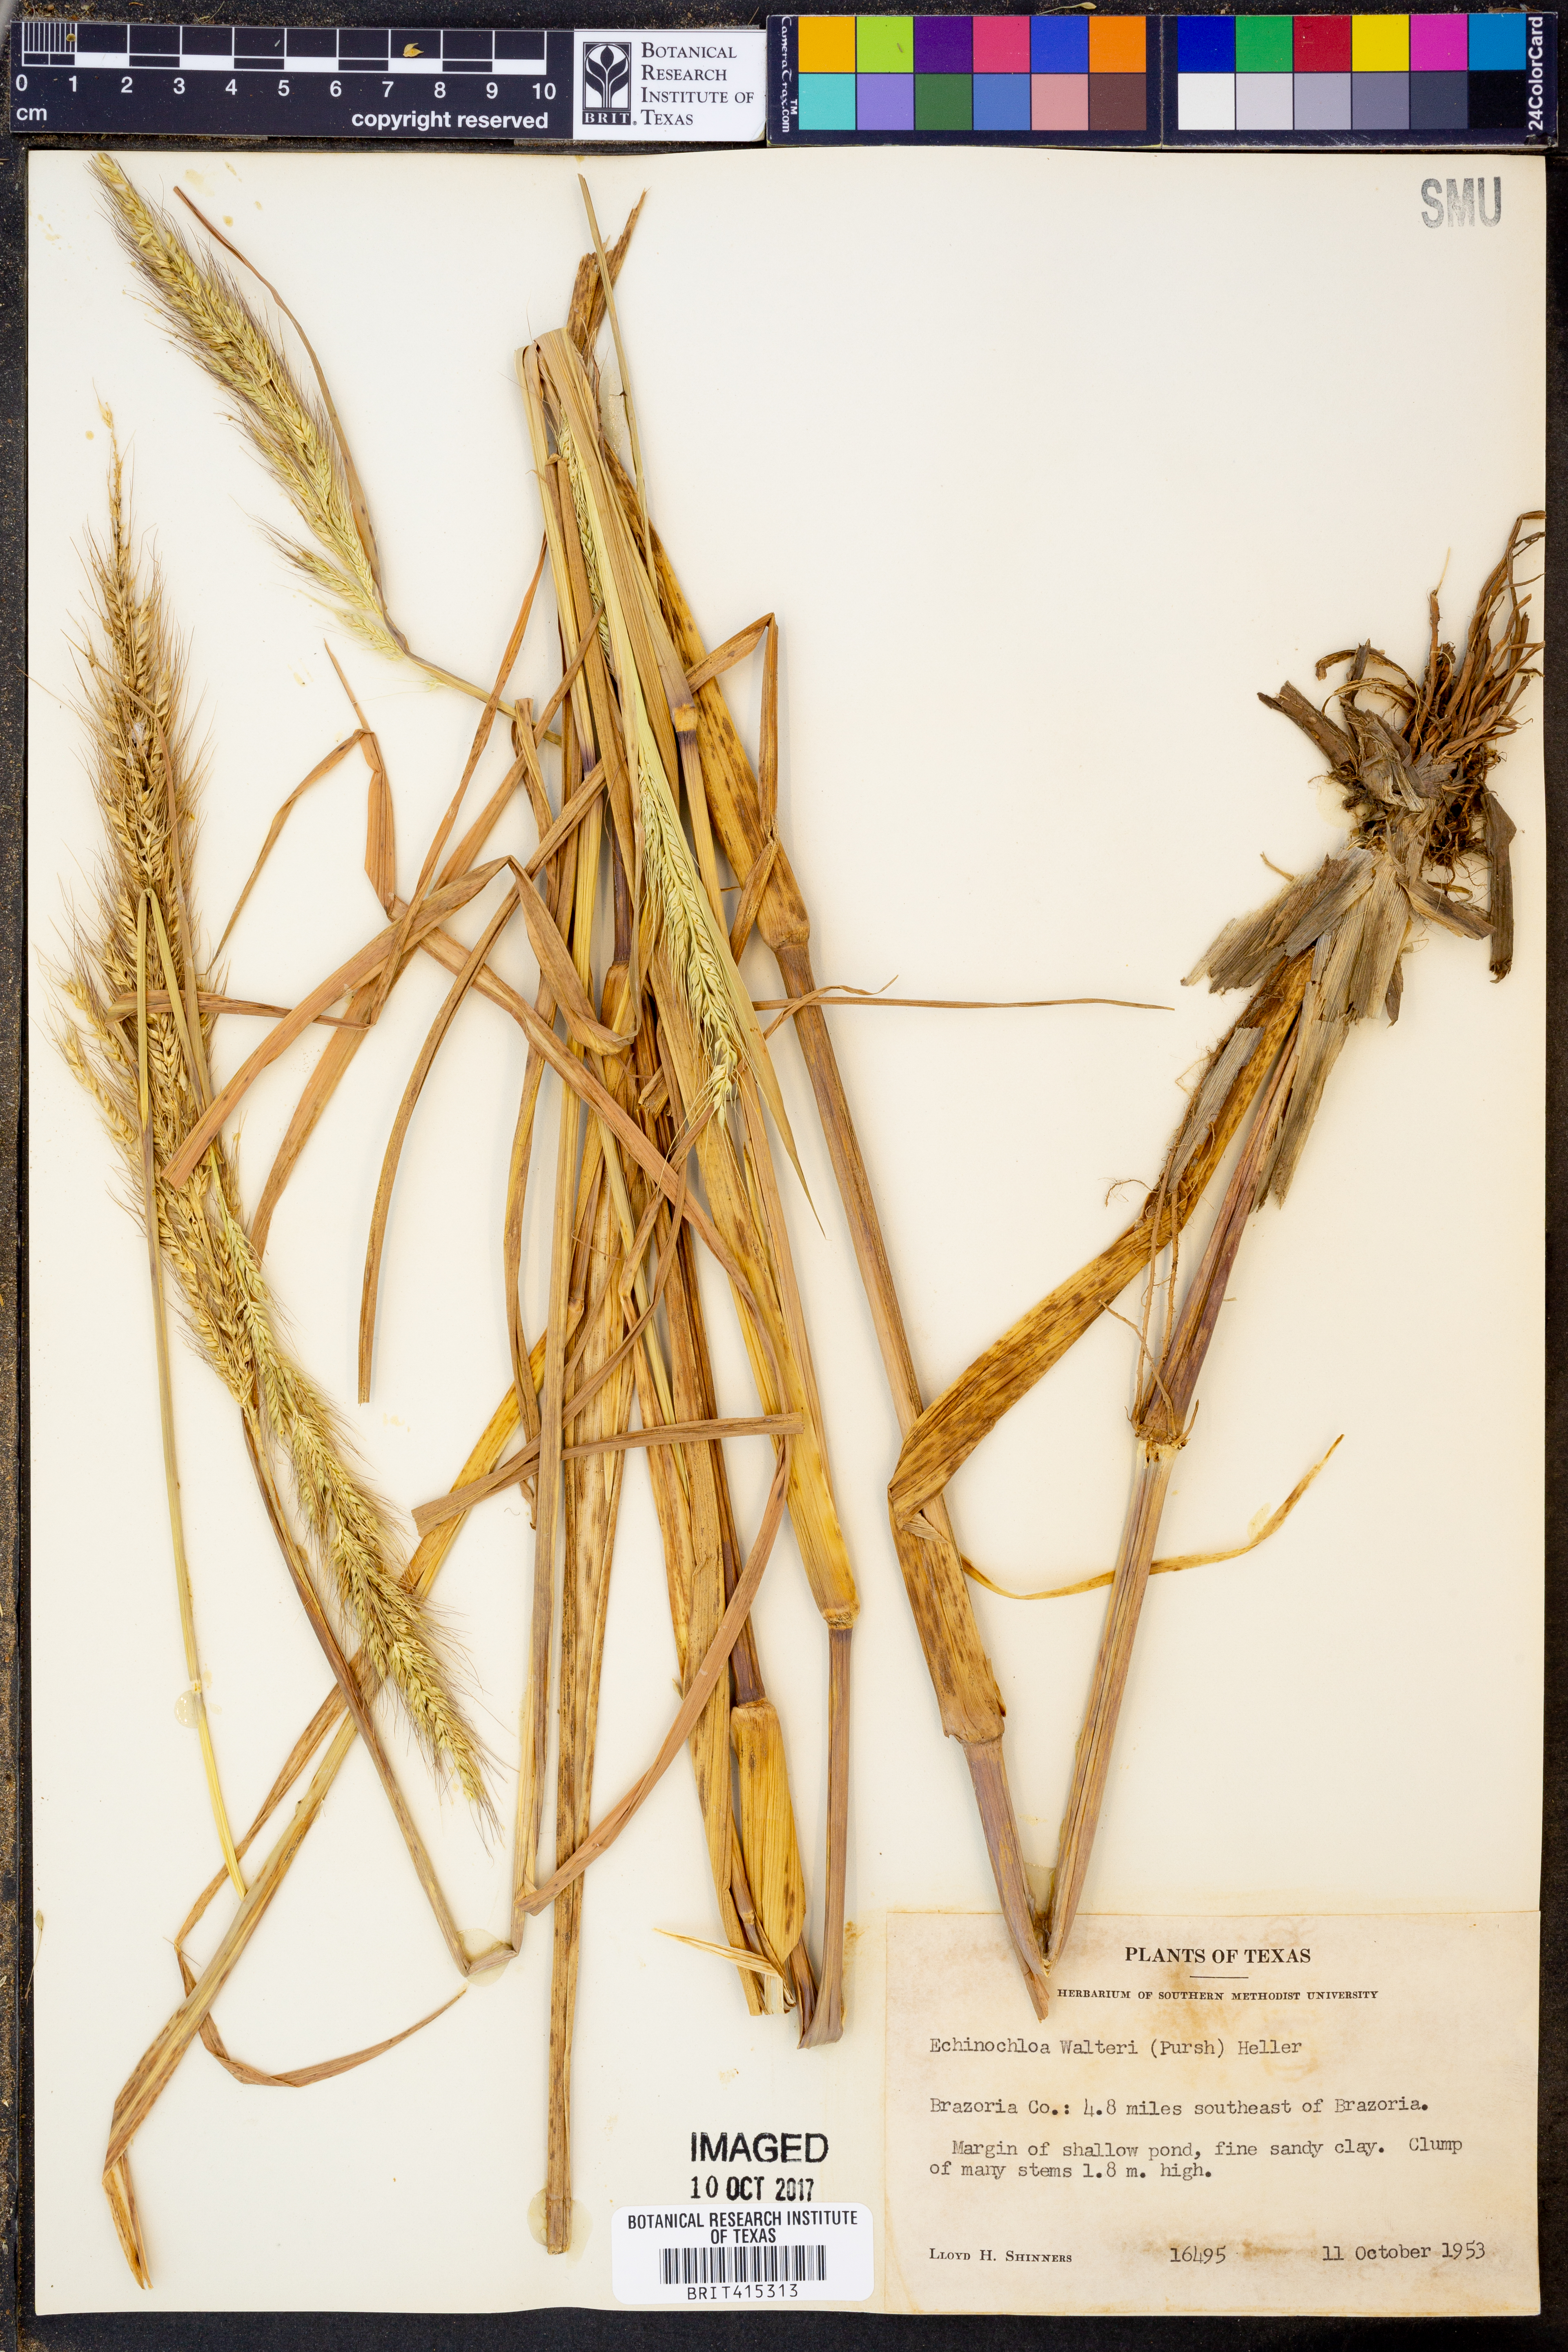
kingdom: Plantae
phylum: Tracheophyta
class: Liliopsida
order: Poales
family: Poaceae
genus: Echinochloa
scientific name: Echinochloa walteri
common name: Coast barnyard grass
